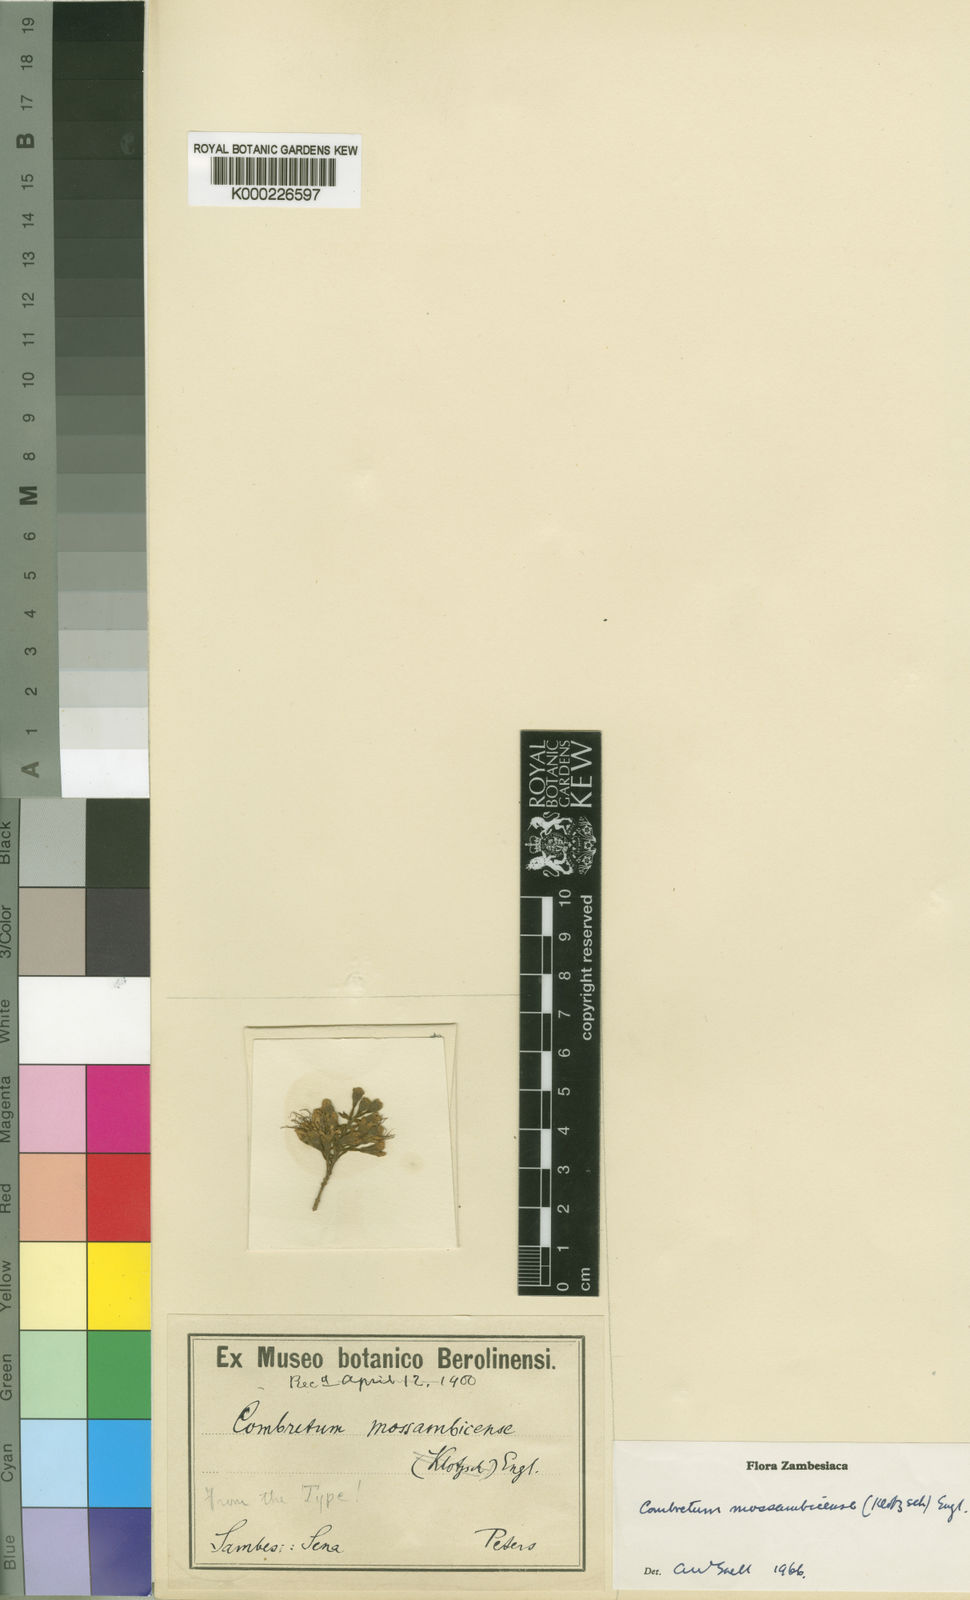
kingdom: Plantae
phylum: Tracheophyta
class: Magnoliopsida
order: Myrtales
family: Combretaceae
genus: Combretum
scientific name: Combretum mossambicense
